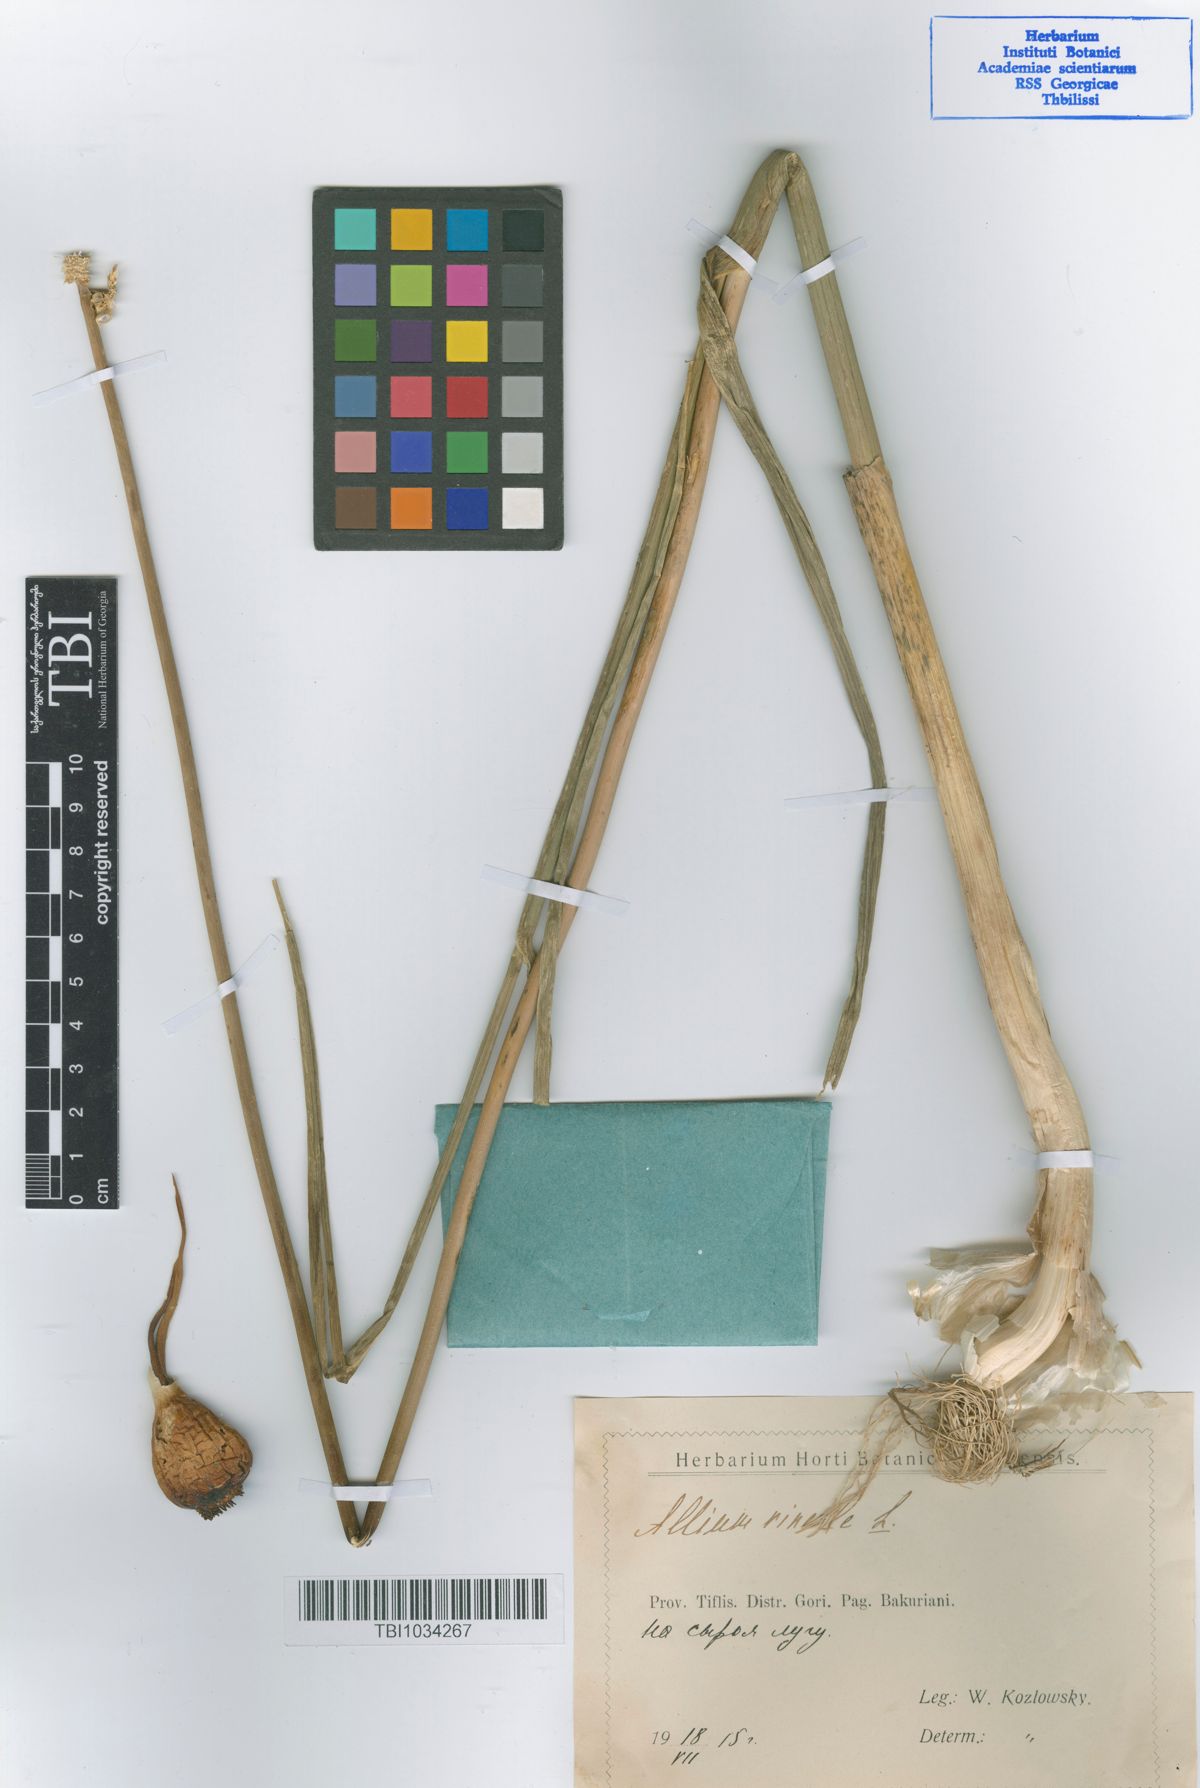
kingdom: Plantae
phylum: Tracheophyta
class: Liliopsida
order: Asparagales
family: Amaryllidaceae
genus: Allium
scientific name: Allium vineale
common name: Crow garlic
